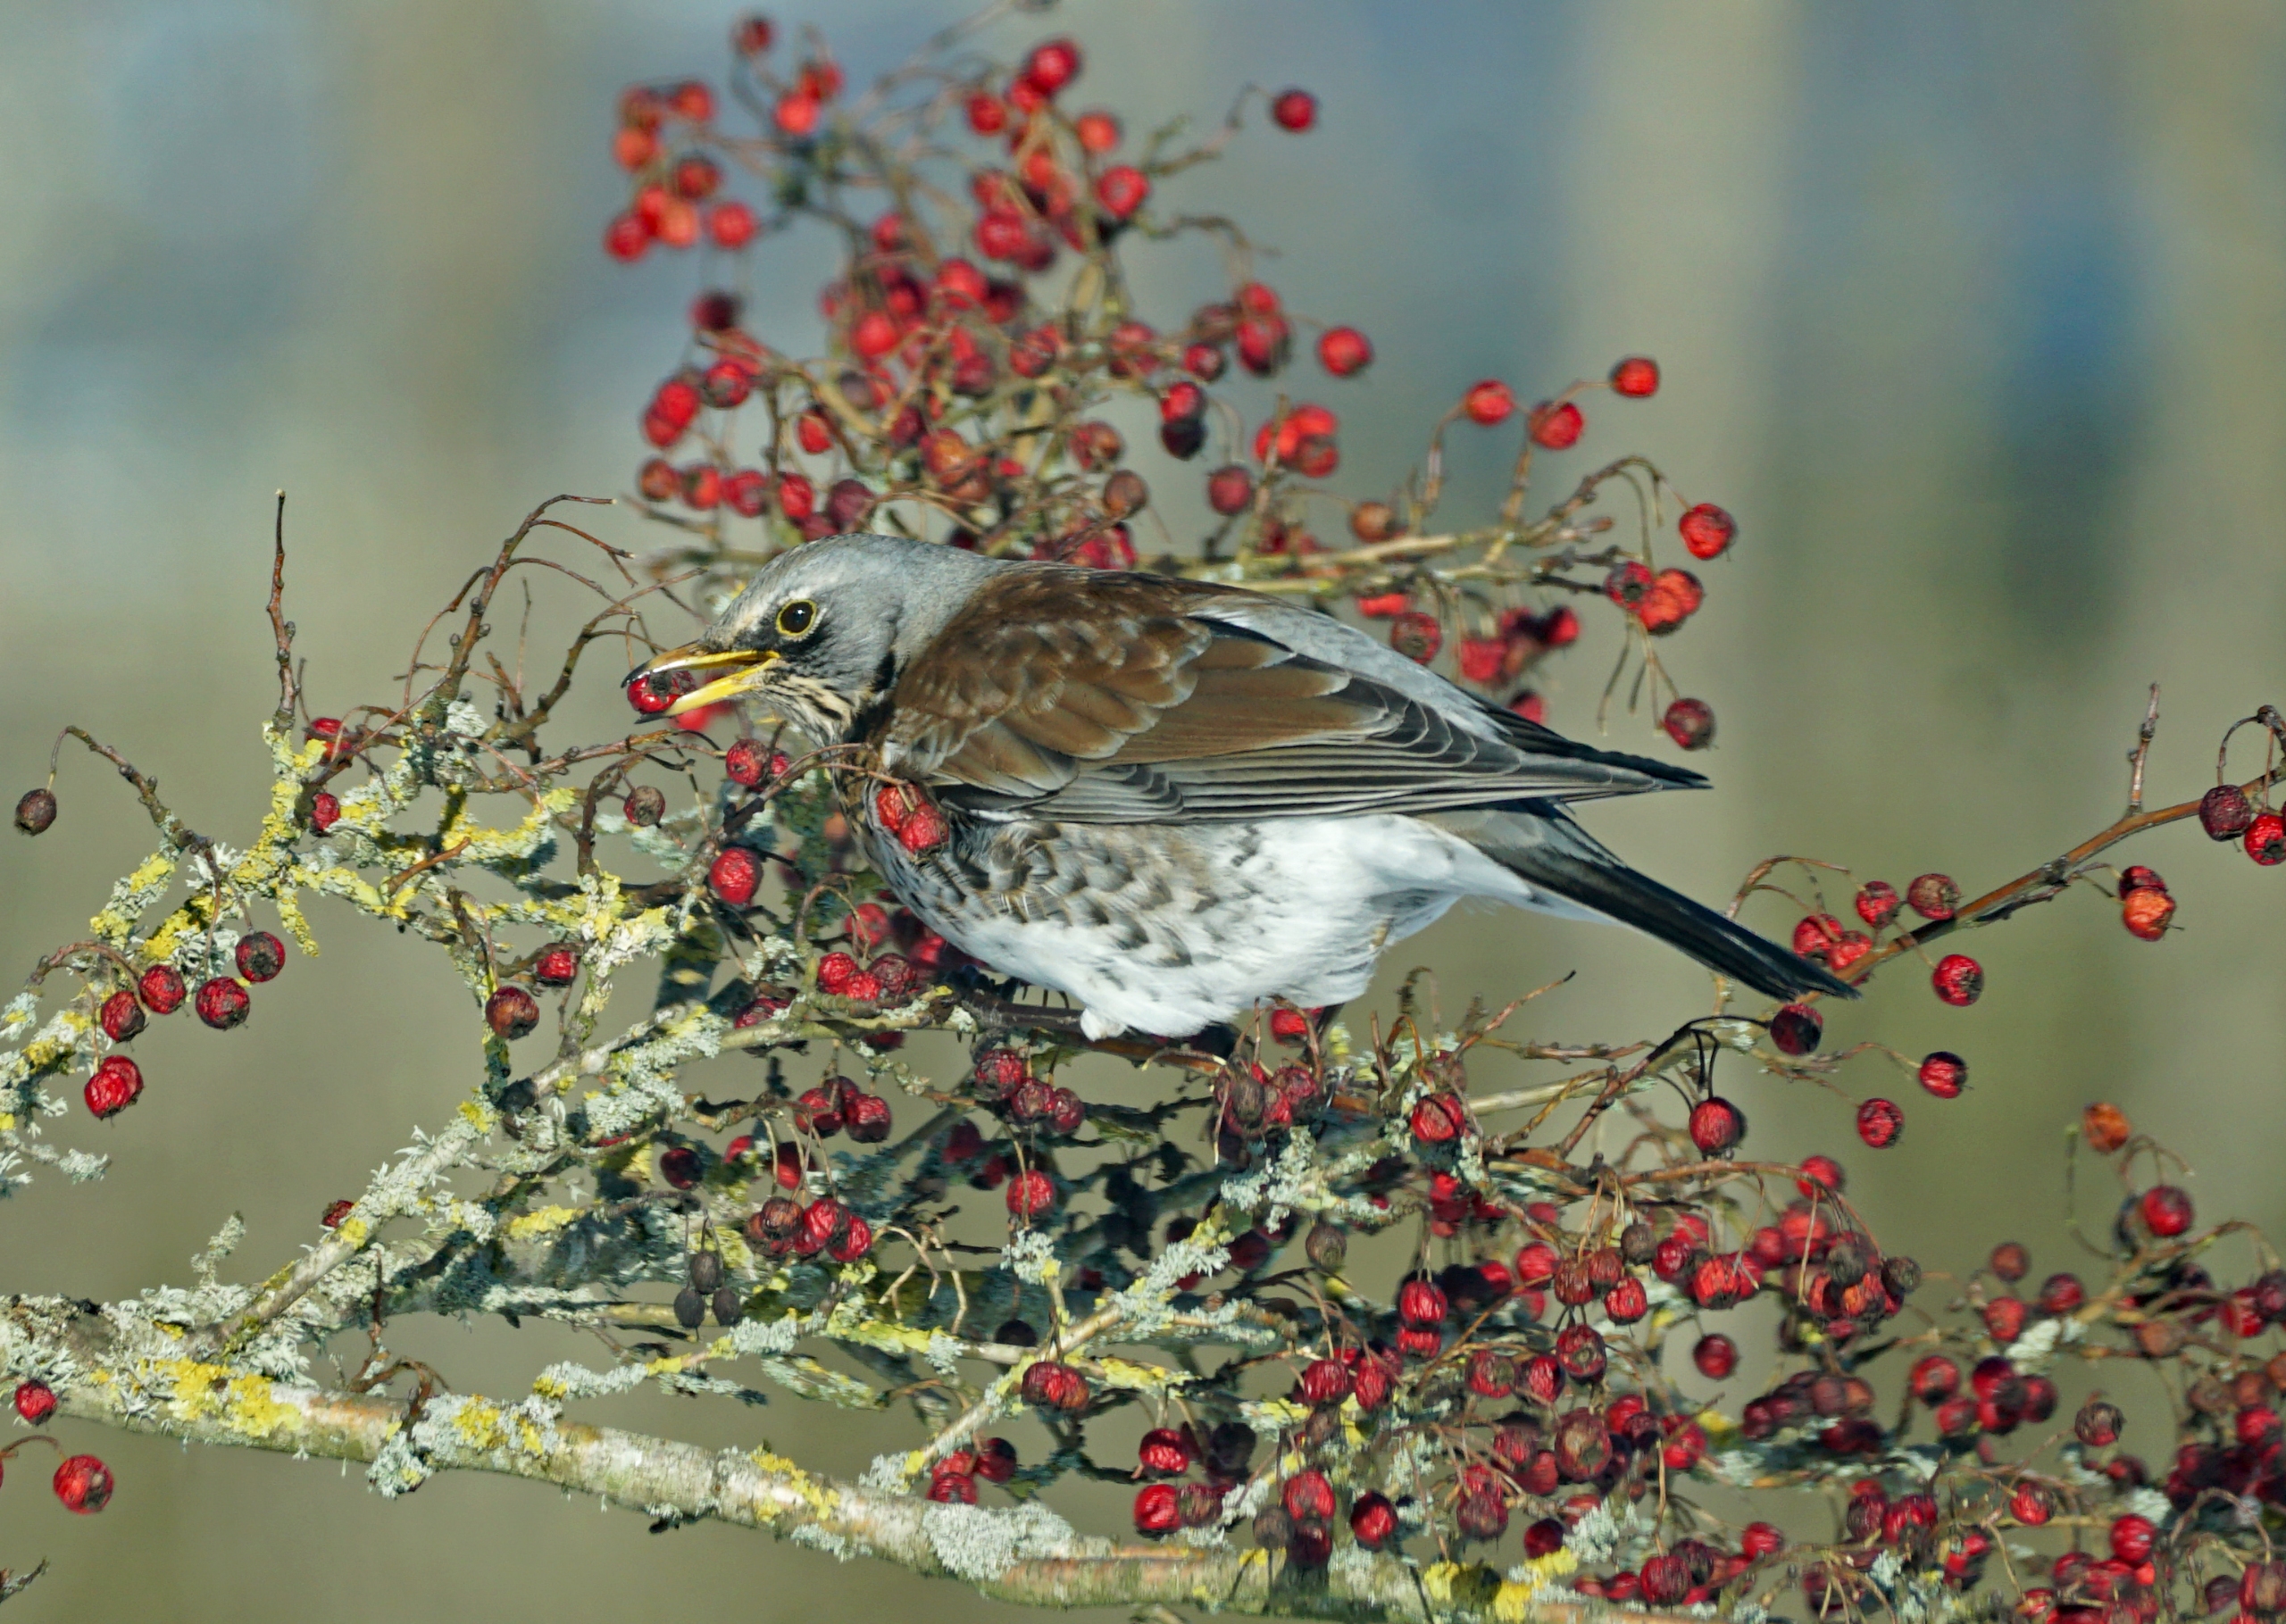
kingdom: Animalia
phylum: Chordata
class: Aves
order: Passeriformes
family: Turdidae
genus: Turdus
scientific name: Turdus pilaris
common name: Sjagger
